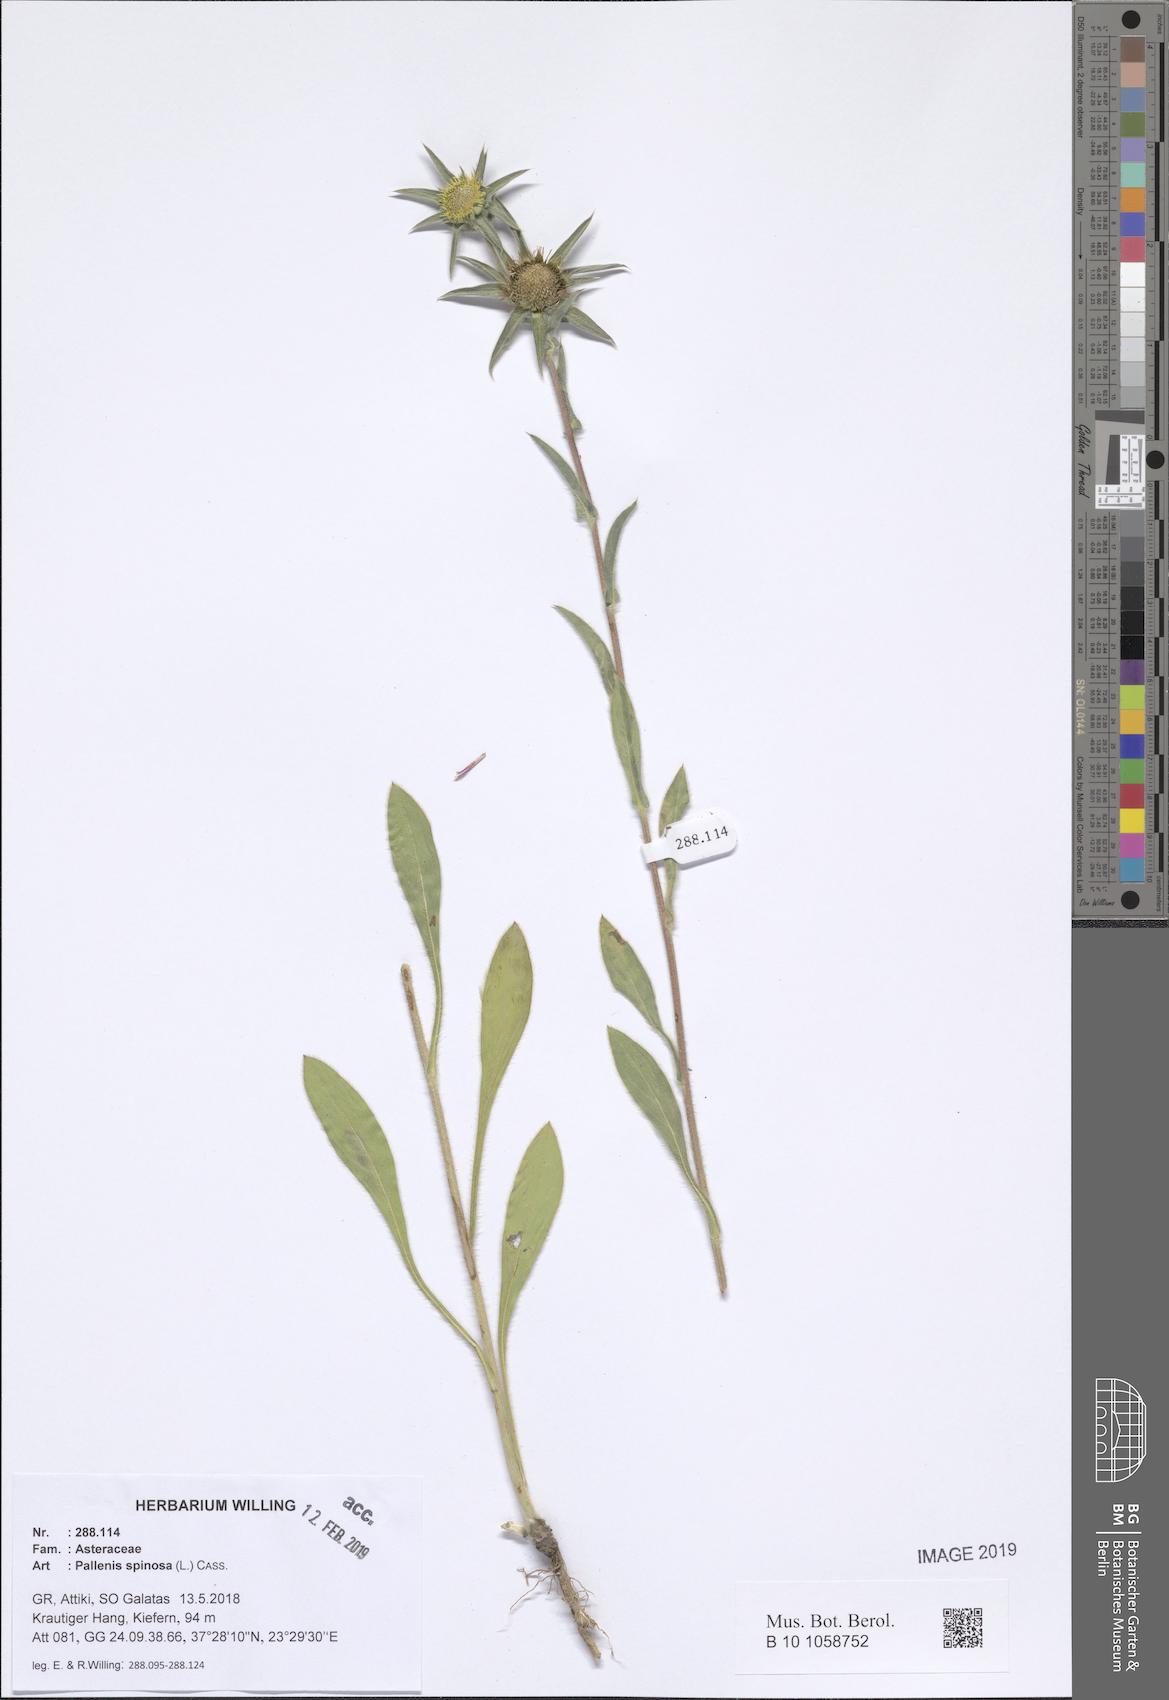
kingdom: Plantae
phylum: Tracheophyta
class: Magnoliopsida
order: Asterales
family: Asteraceae
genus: Pallenis
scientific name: Pallenis spinosa
